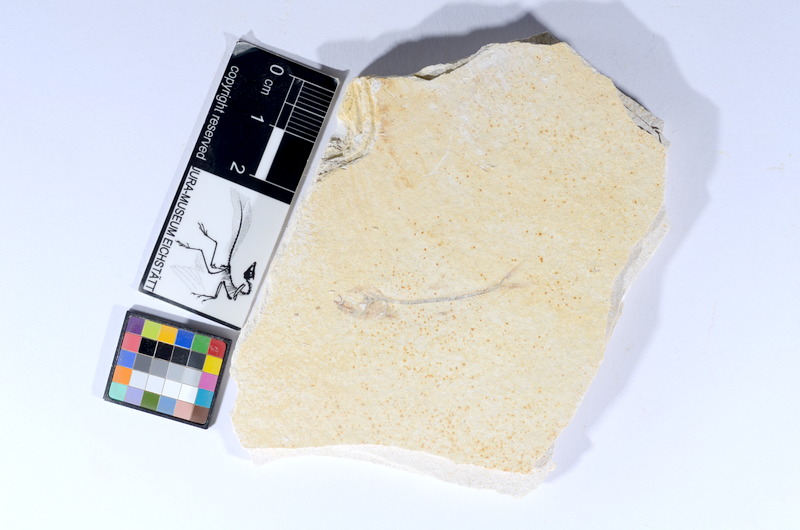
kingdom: Animalia
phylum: Chordata
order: Salmoniformes
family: Orthogonikleithridae
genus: Orthogonikleithrus
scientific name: Orthogonikleithrus hoelli
